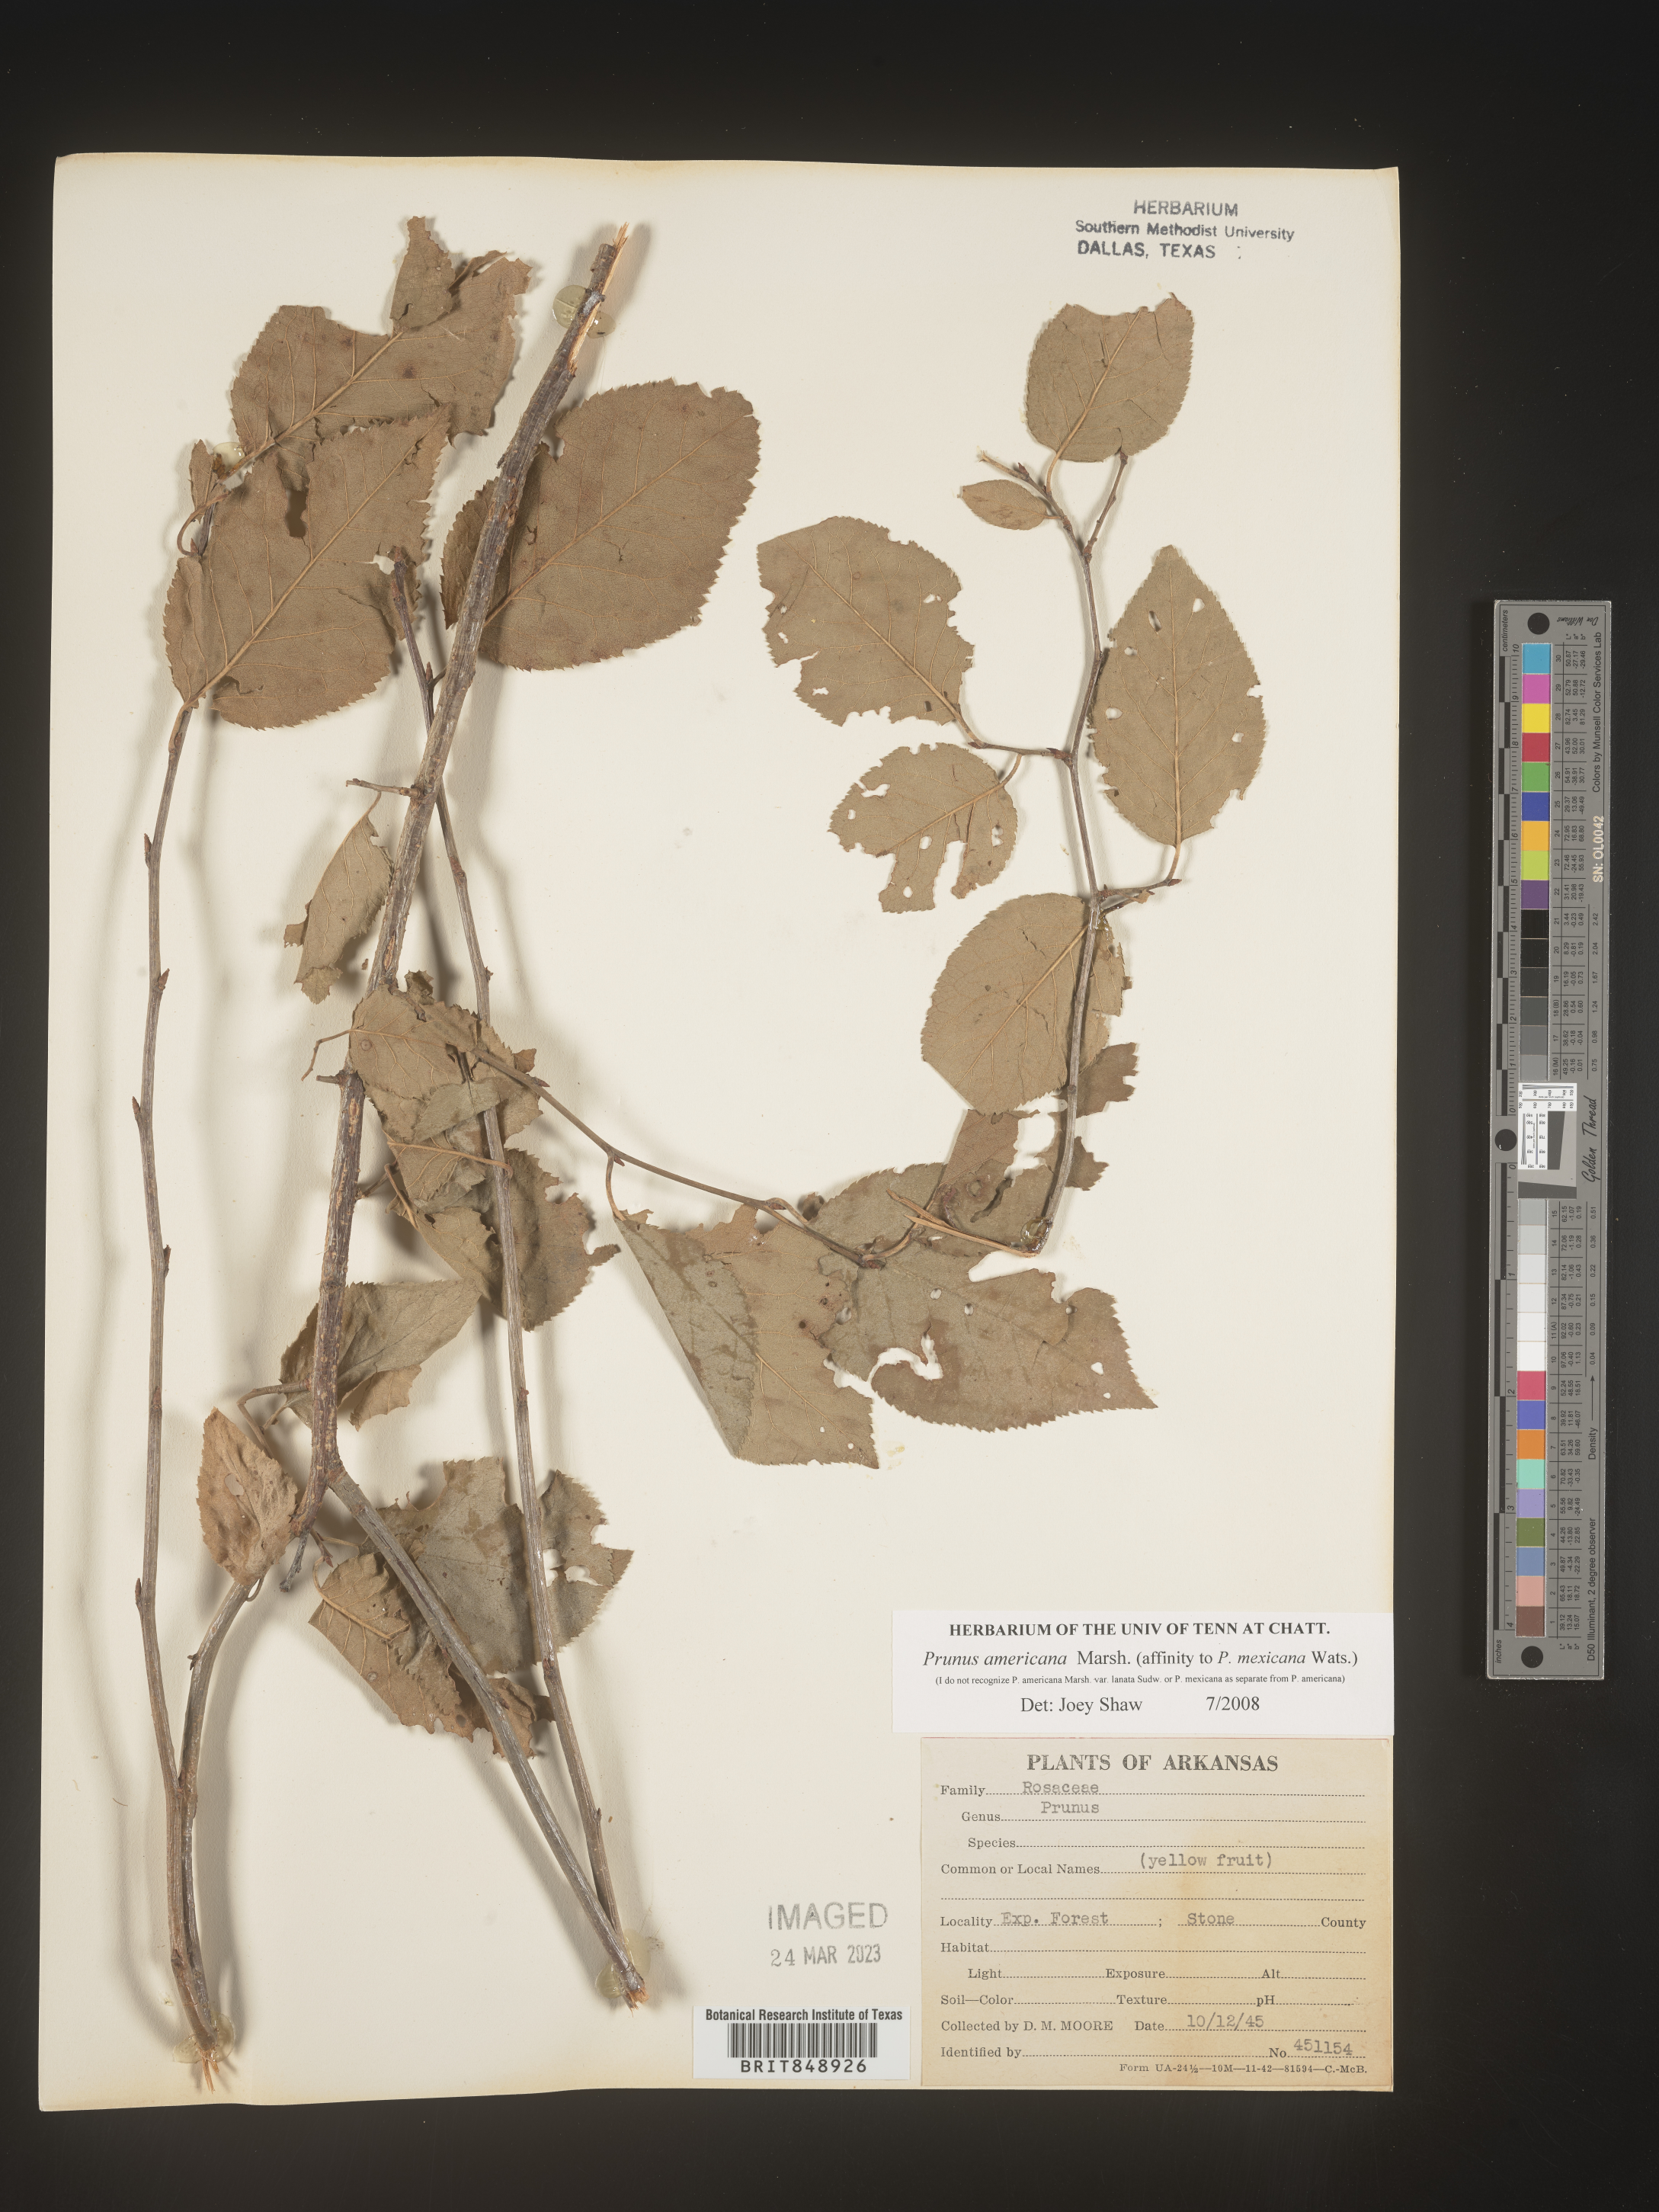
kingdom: Plantae
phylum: Tracheophyta
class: Magnoliopsida
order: Rosales
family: Rosaceae
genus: Prunus
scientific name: Prunus americana
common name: American plum
